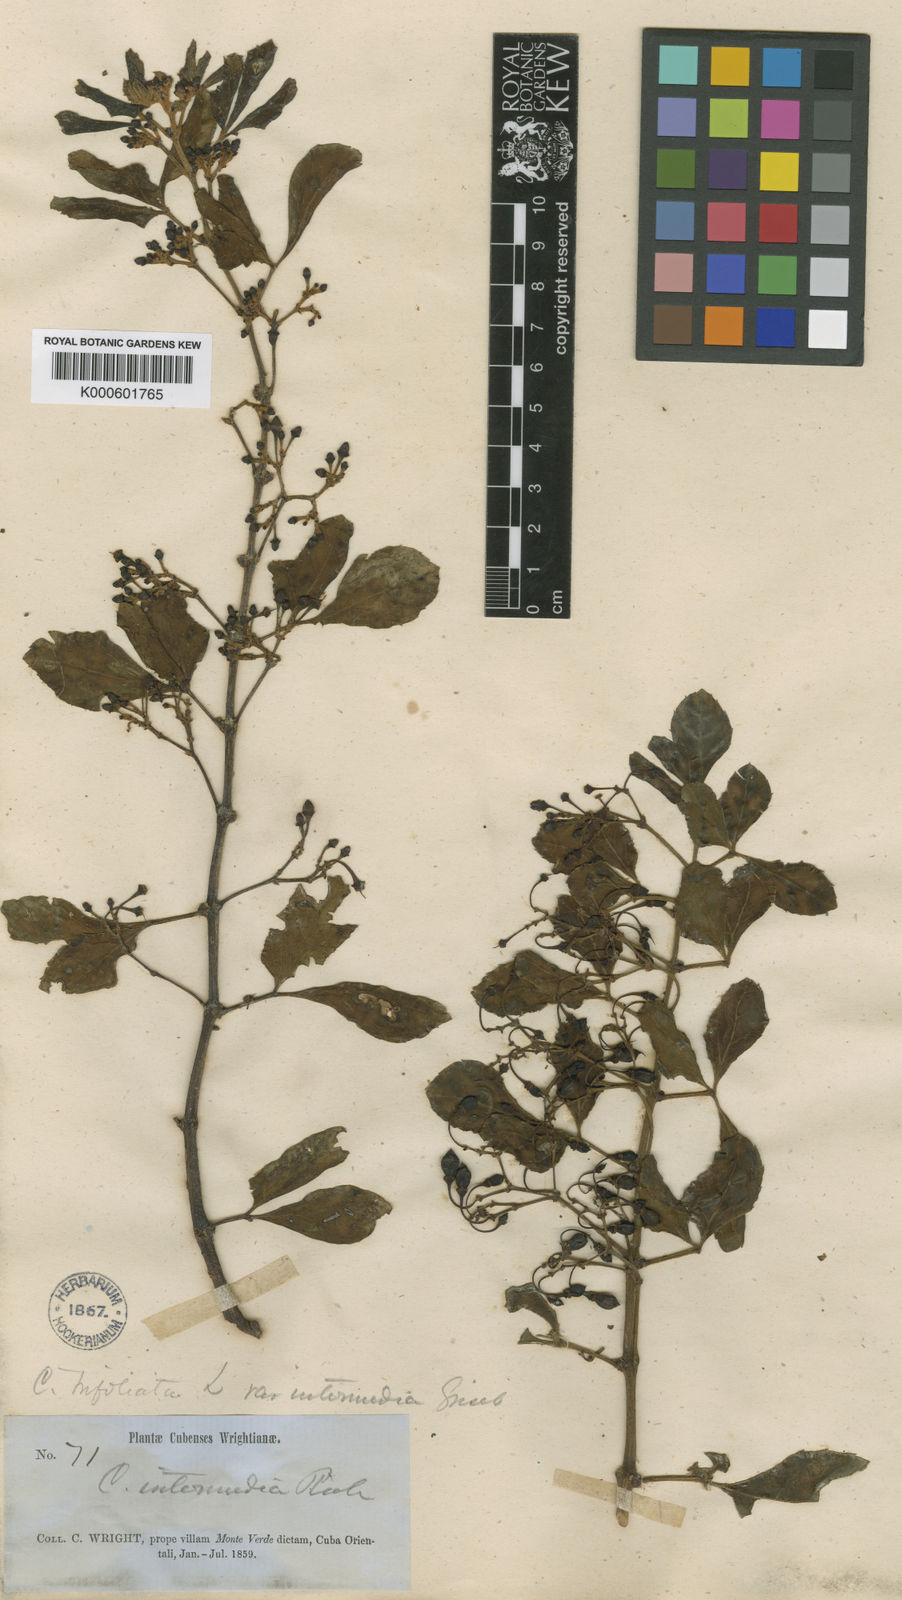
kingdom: Plantae
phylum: Tracheophyta
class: Magnoliopsida
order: Vitales
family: Vitaceae
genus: Cissus
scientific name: Cissus intermedia
